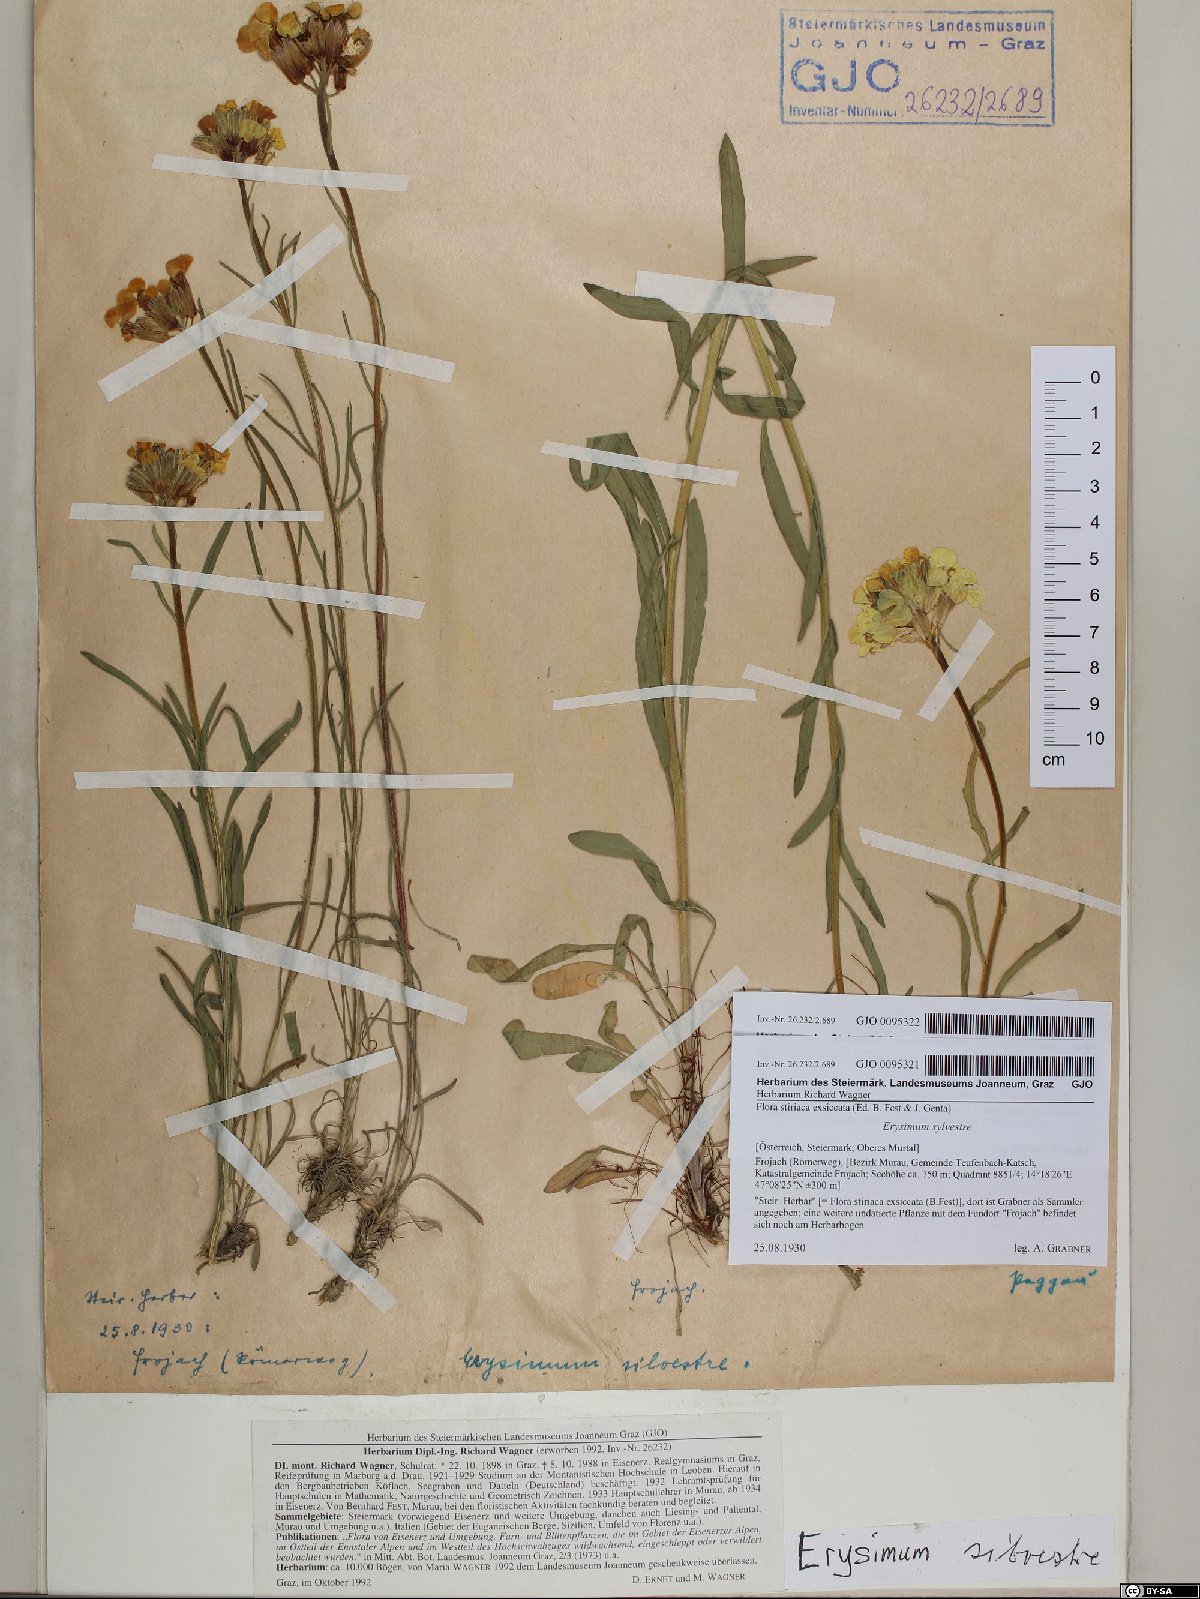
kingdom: Plantae
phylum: Tracheophyta
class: Magnoliopsida
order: Brassicales
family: Brassicaceae
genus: Erysimum
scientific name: Erysimum sylvestre
